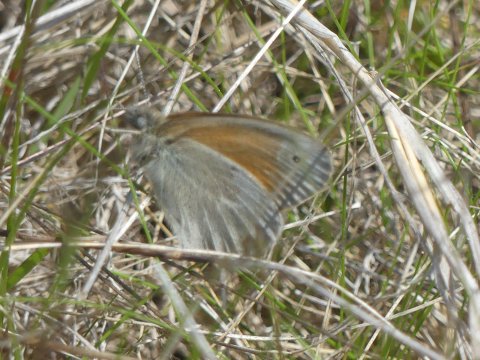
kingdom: Animalia
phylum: Arthropoda
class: Insecta
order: Lepidoptera
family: Nymphalidae
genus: Coenonympha
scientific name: Coenonympha tullia
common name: Large Heath
